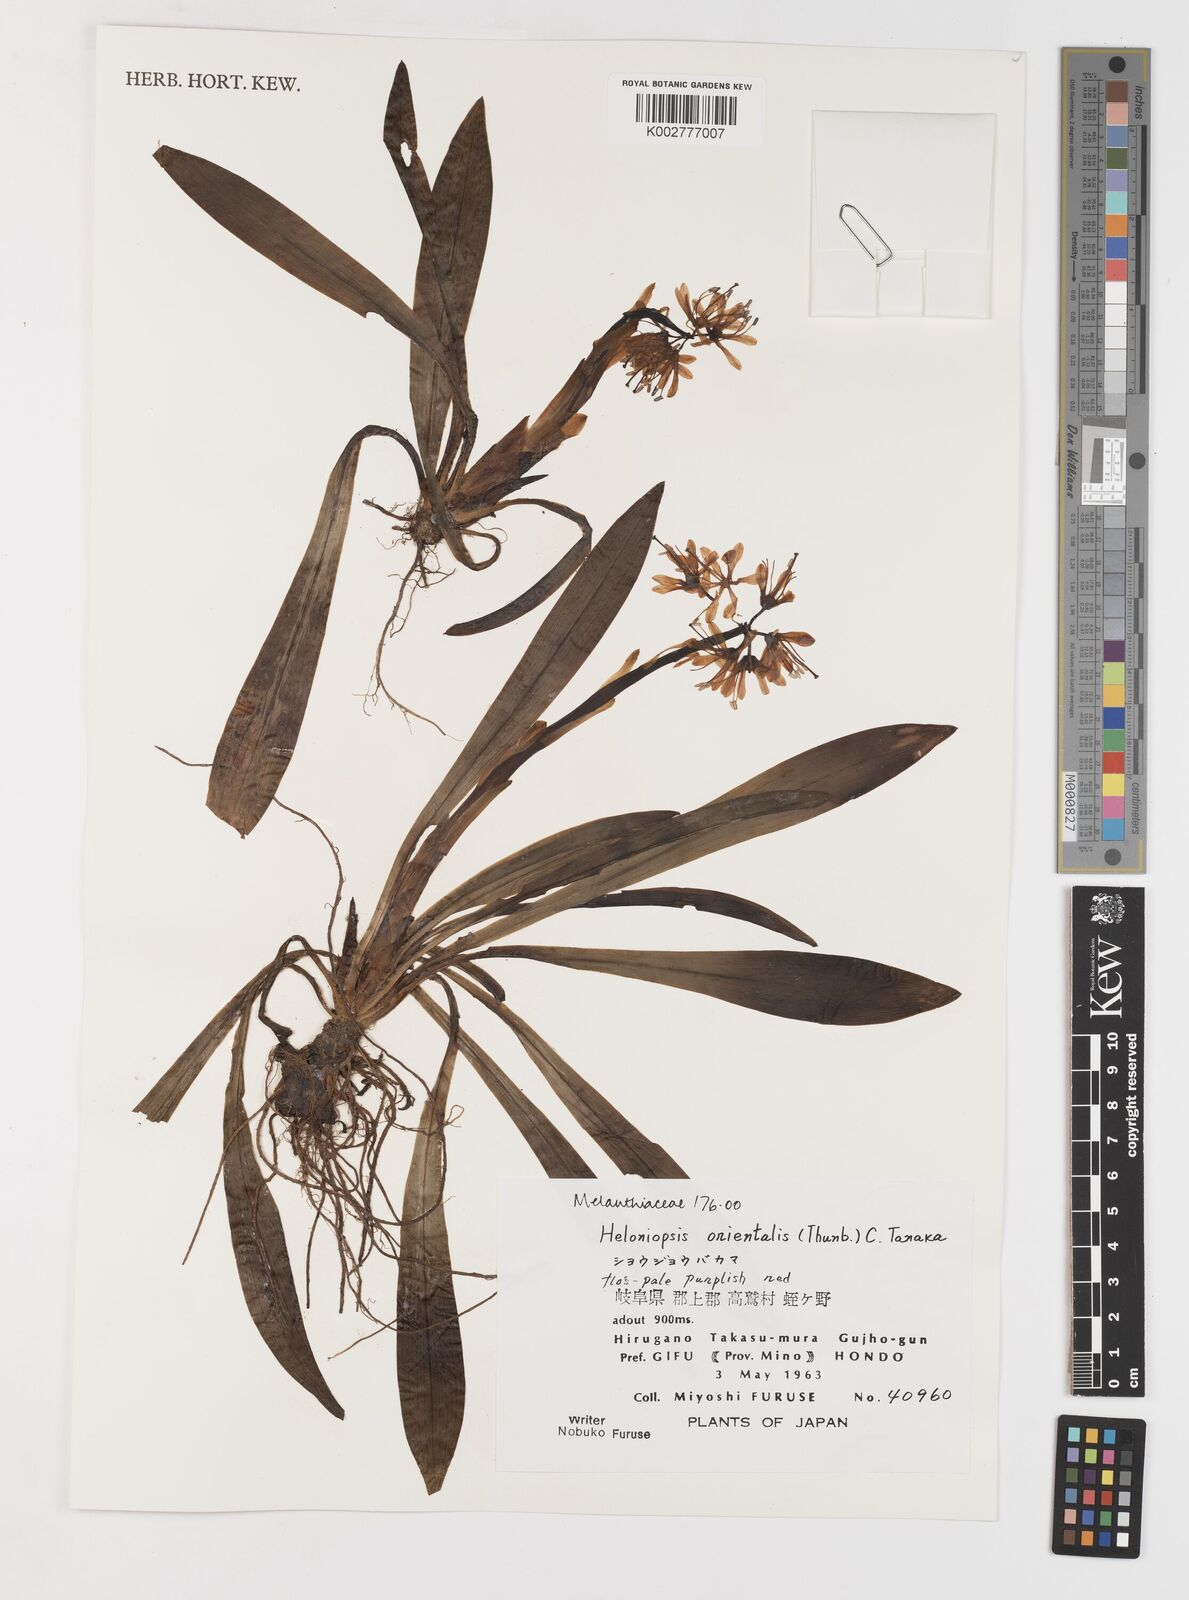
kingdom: Plantae
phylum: Tracheophyta
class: Liliopsida
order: Liliales
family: Melanthiaceae
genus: Helonias
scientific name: Helonias orientalis
